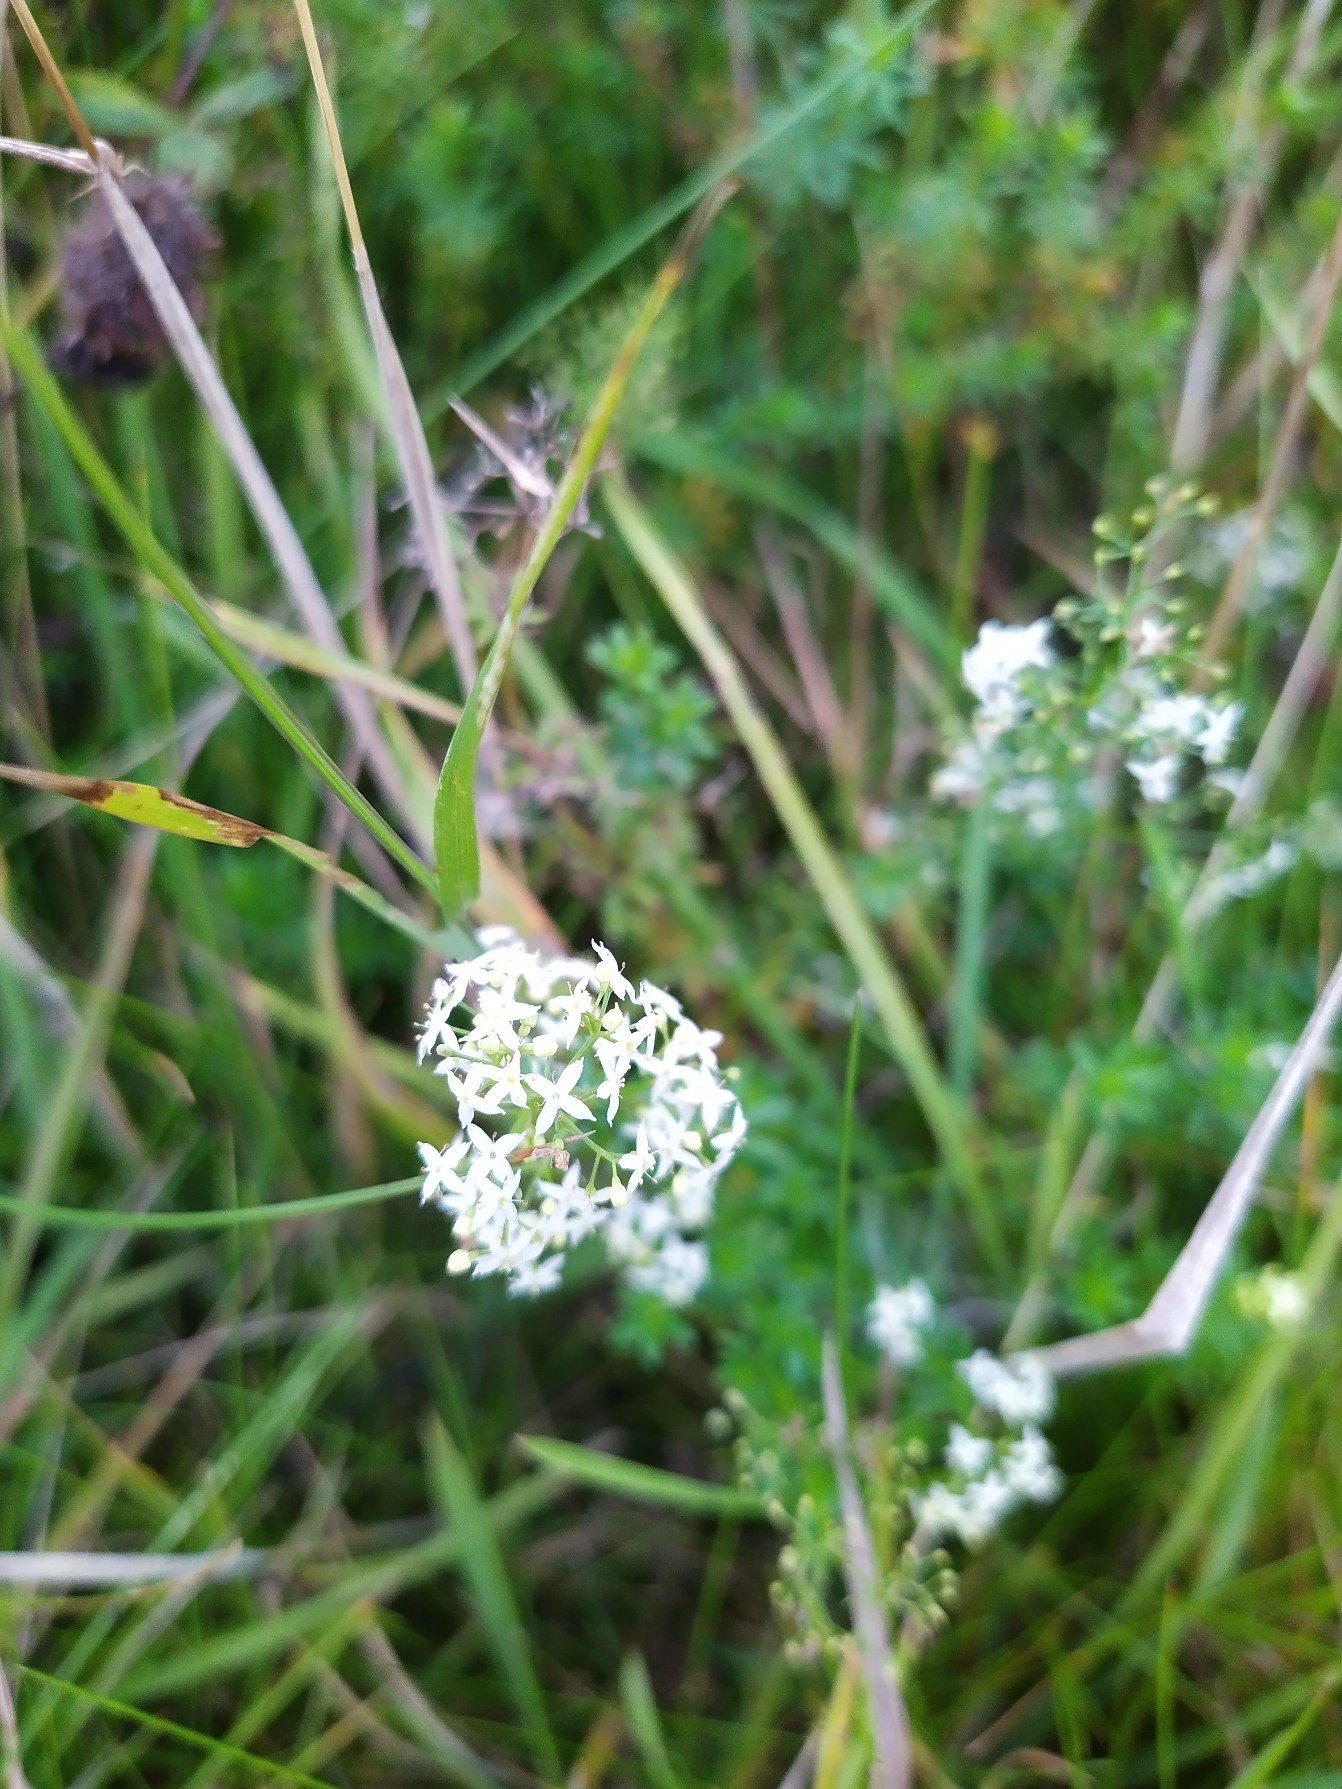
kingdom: Plantae
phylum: Tracheophyta
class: Magnoliopsida
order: Gentianales
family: Rubiaceae
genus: Galium
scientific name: Galium mollugo
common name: Hvid snerre
